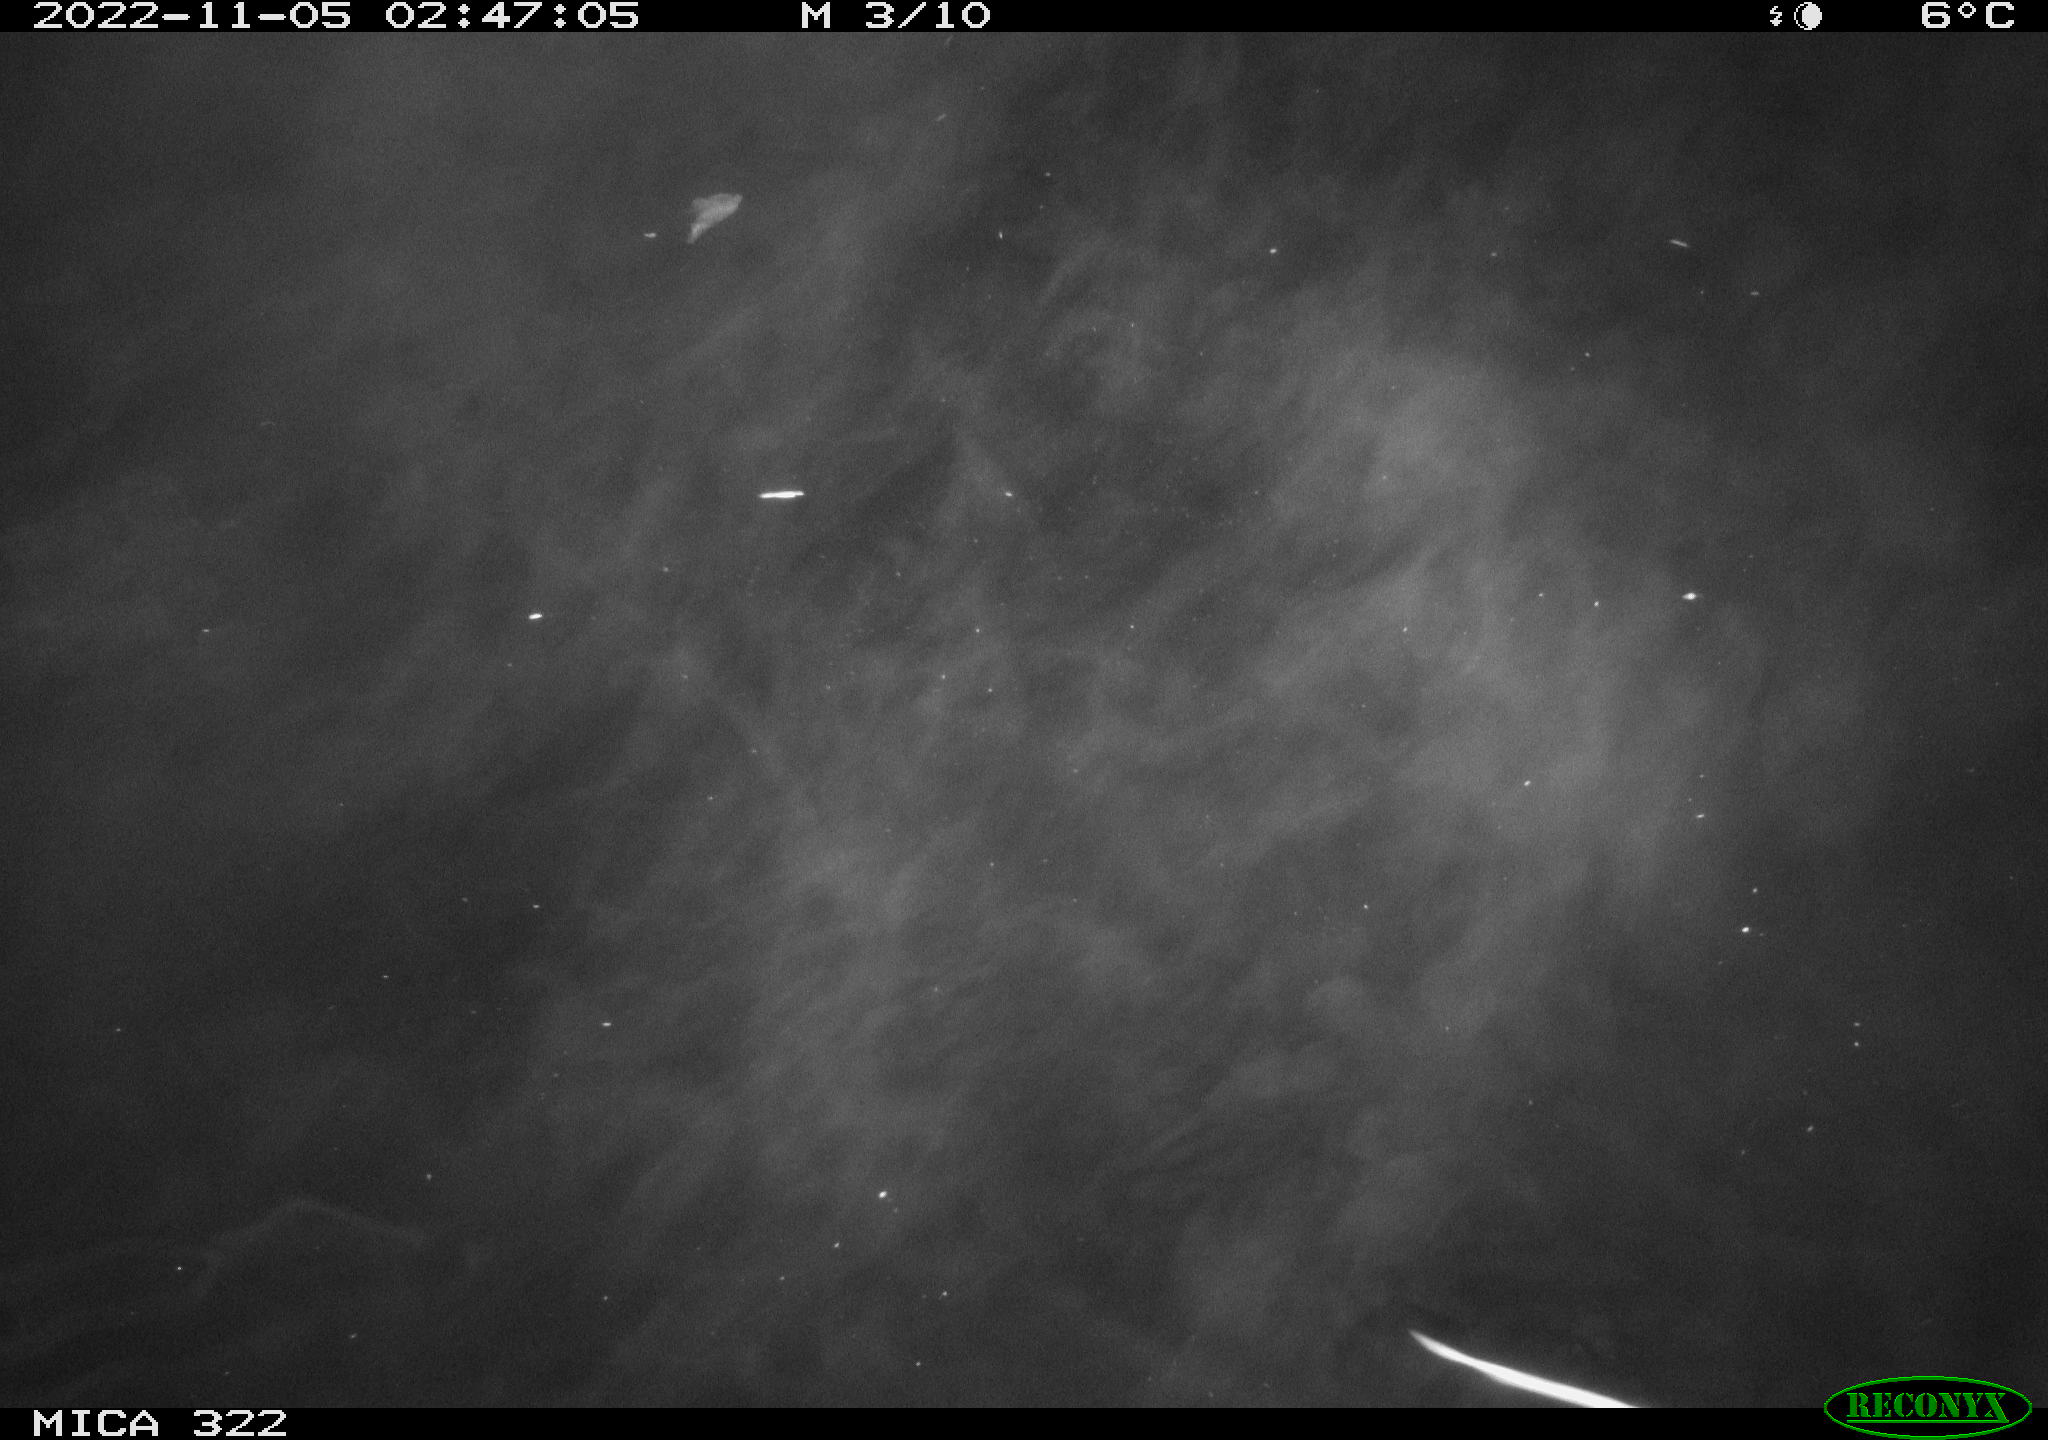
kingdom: Animalia
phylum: Chordata
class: Mammalia
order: Rodentia
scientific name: Rodentia
